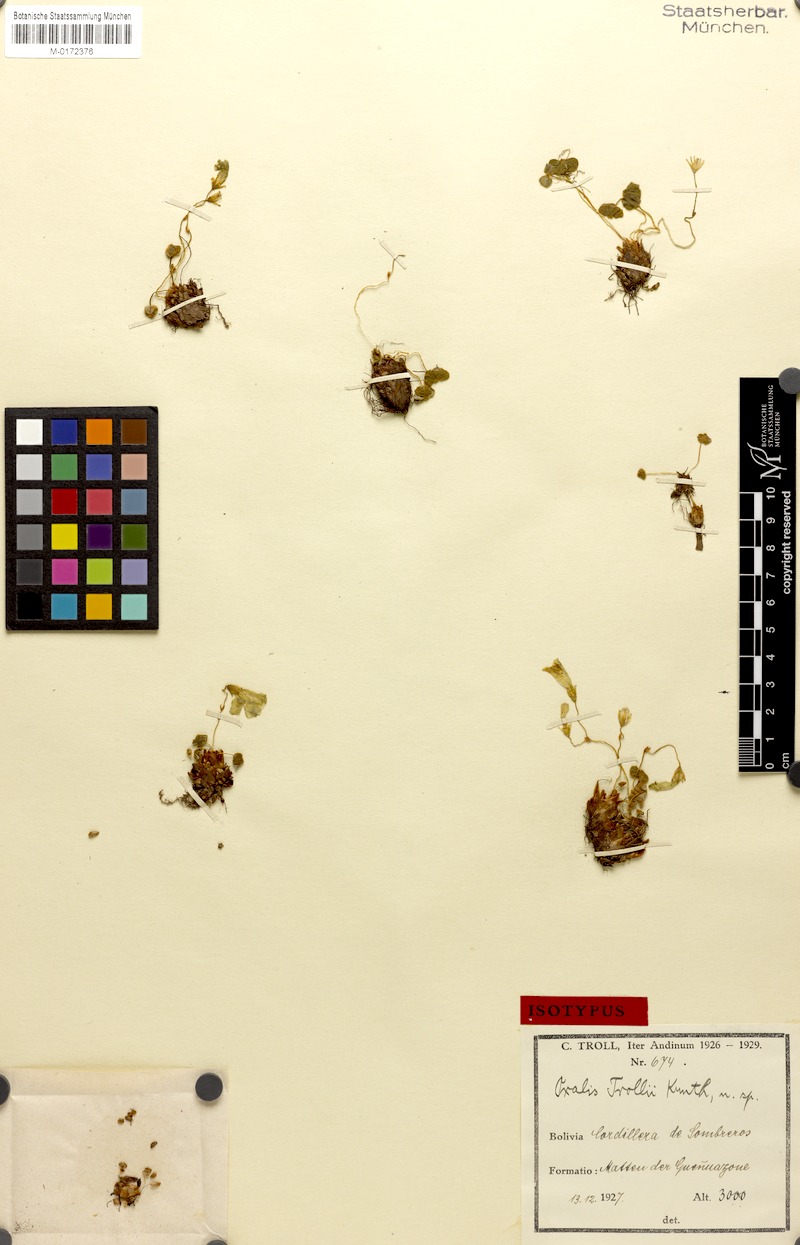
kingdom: Plantae
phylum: Tracheophyta
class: Magnoliopsida
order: Oxalidales
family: Oxalidaceae
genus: Oxalis
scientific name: Oxalis trollii
